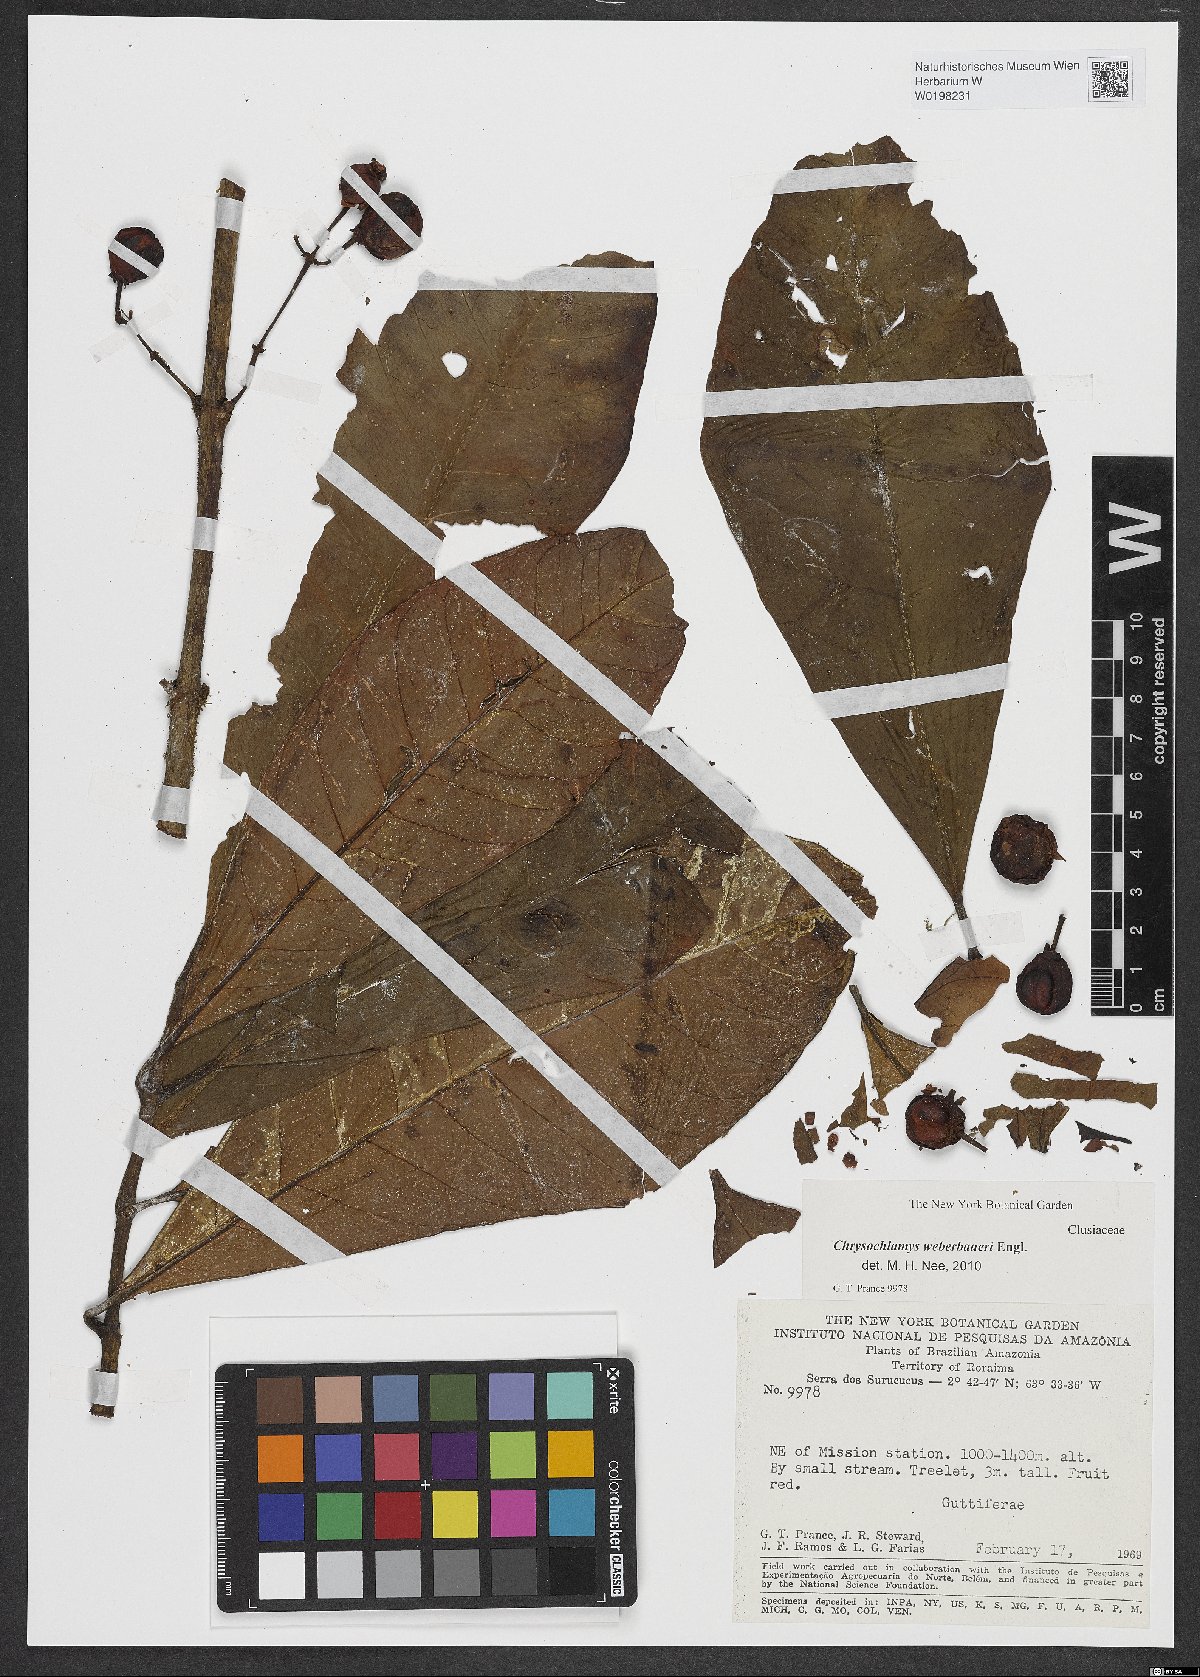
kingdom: Plantae
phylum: Tracheophyta
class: Magnoliopsida
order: Malpighiales
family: Clusiaceae
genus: Chrysochlamys
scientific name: Chrysochlamys weberbaueri
